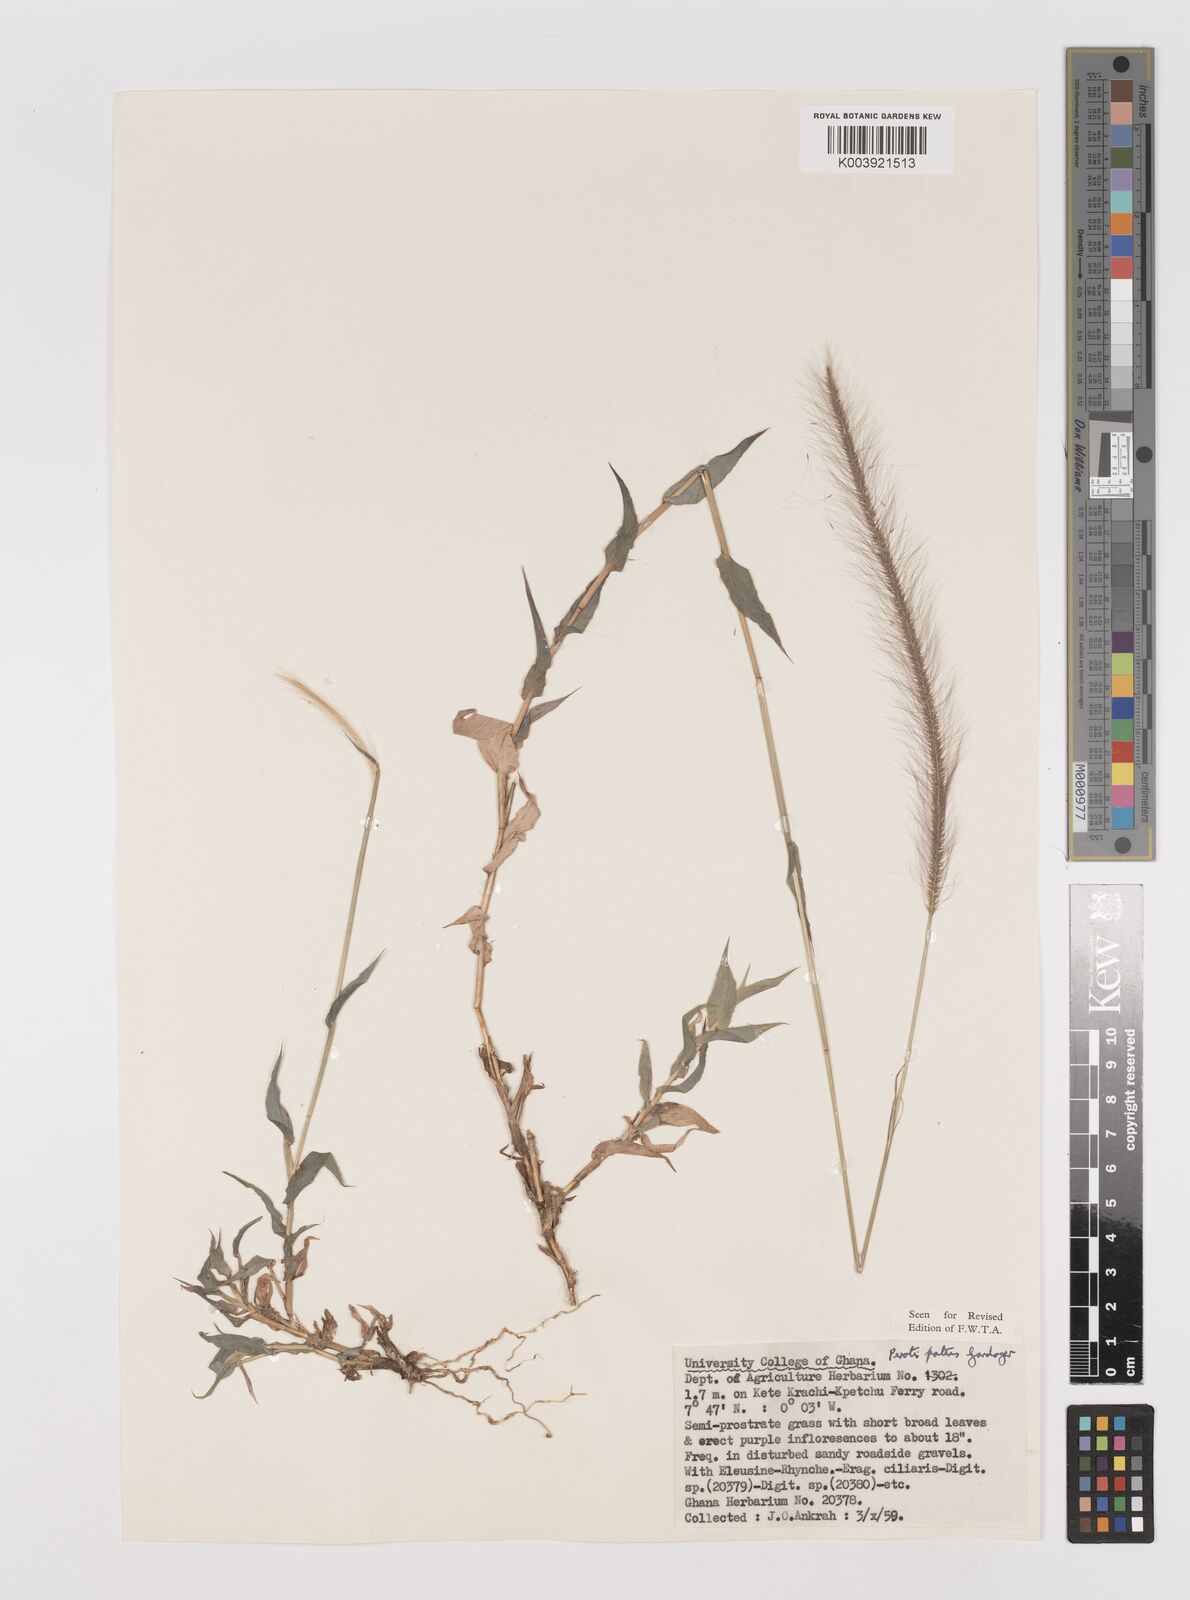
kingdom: Plantae
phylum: Tracheophyta
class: Liliopsida
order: Poales
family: Poaceae
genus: Perotis
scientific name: Perotis patens
